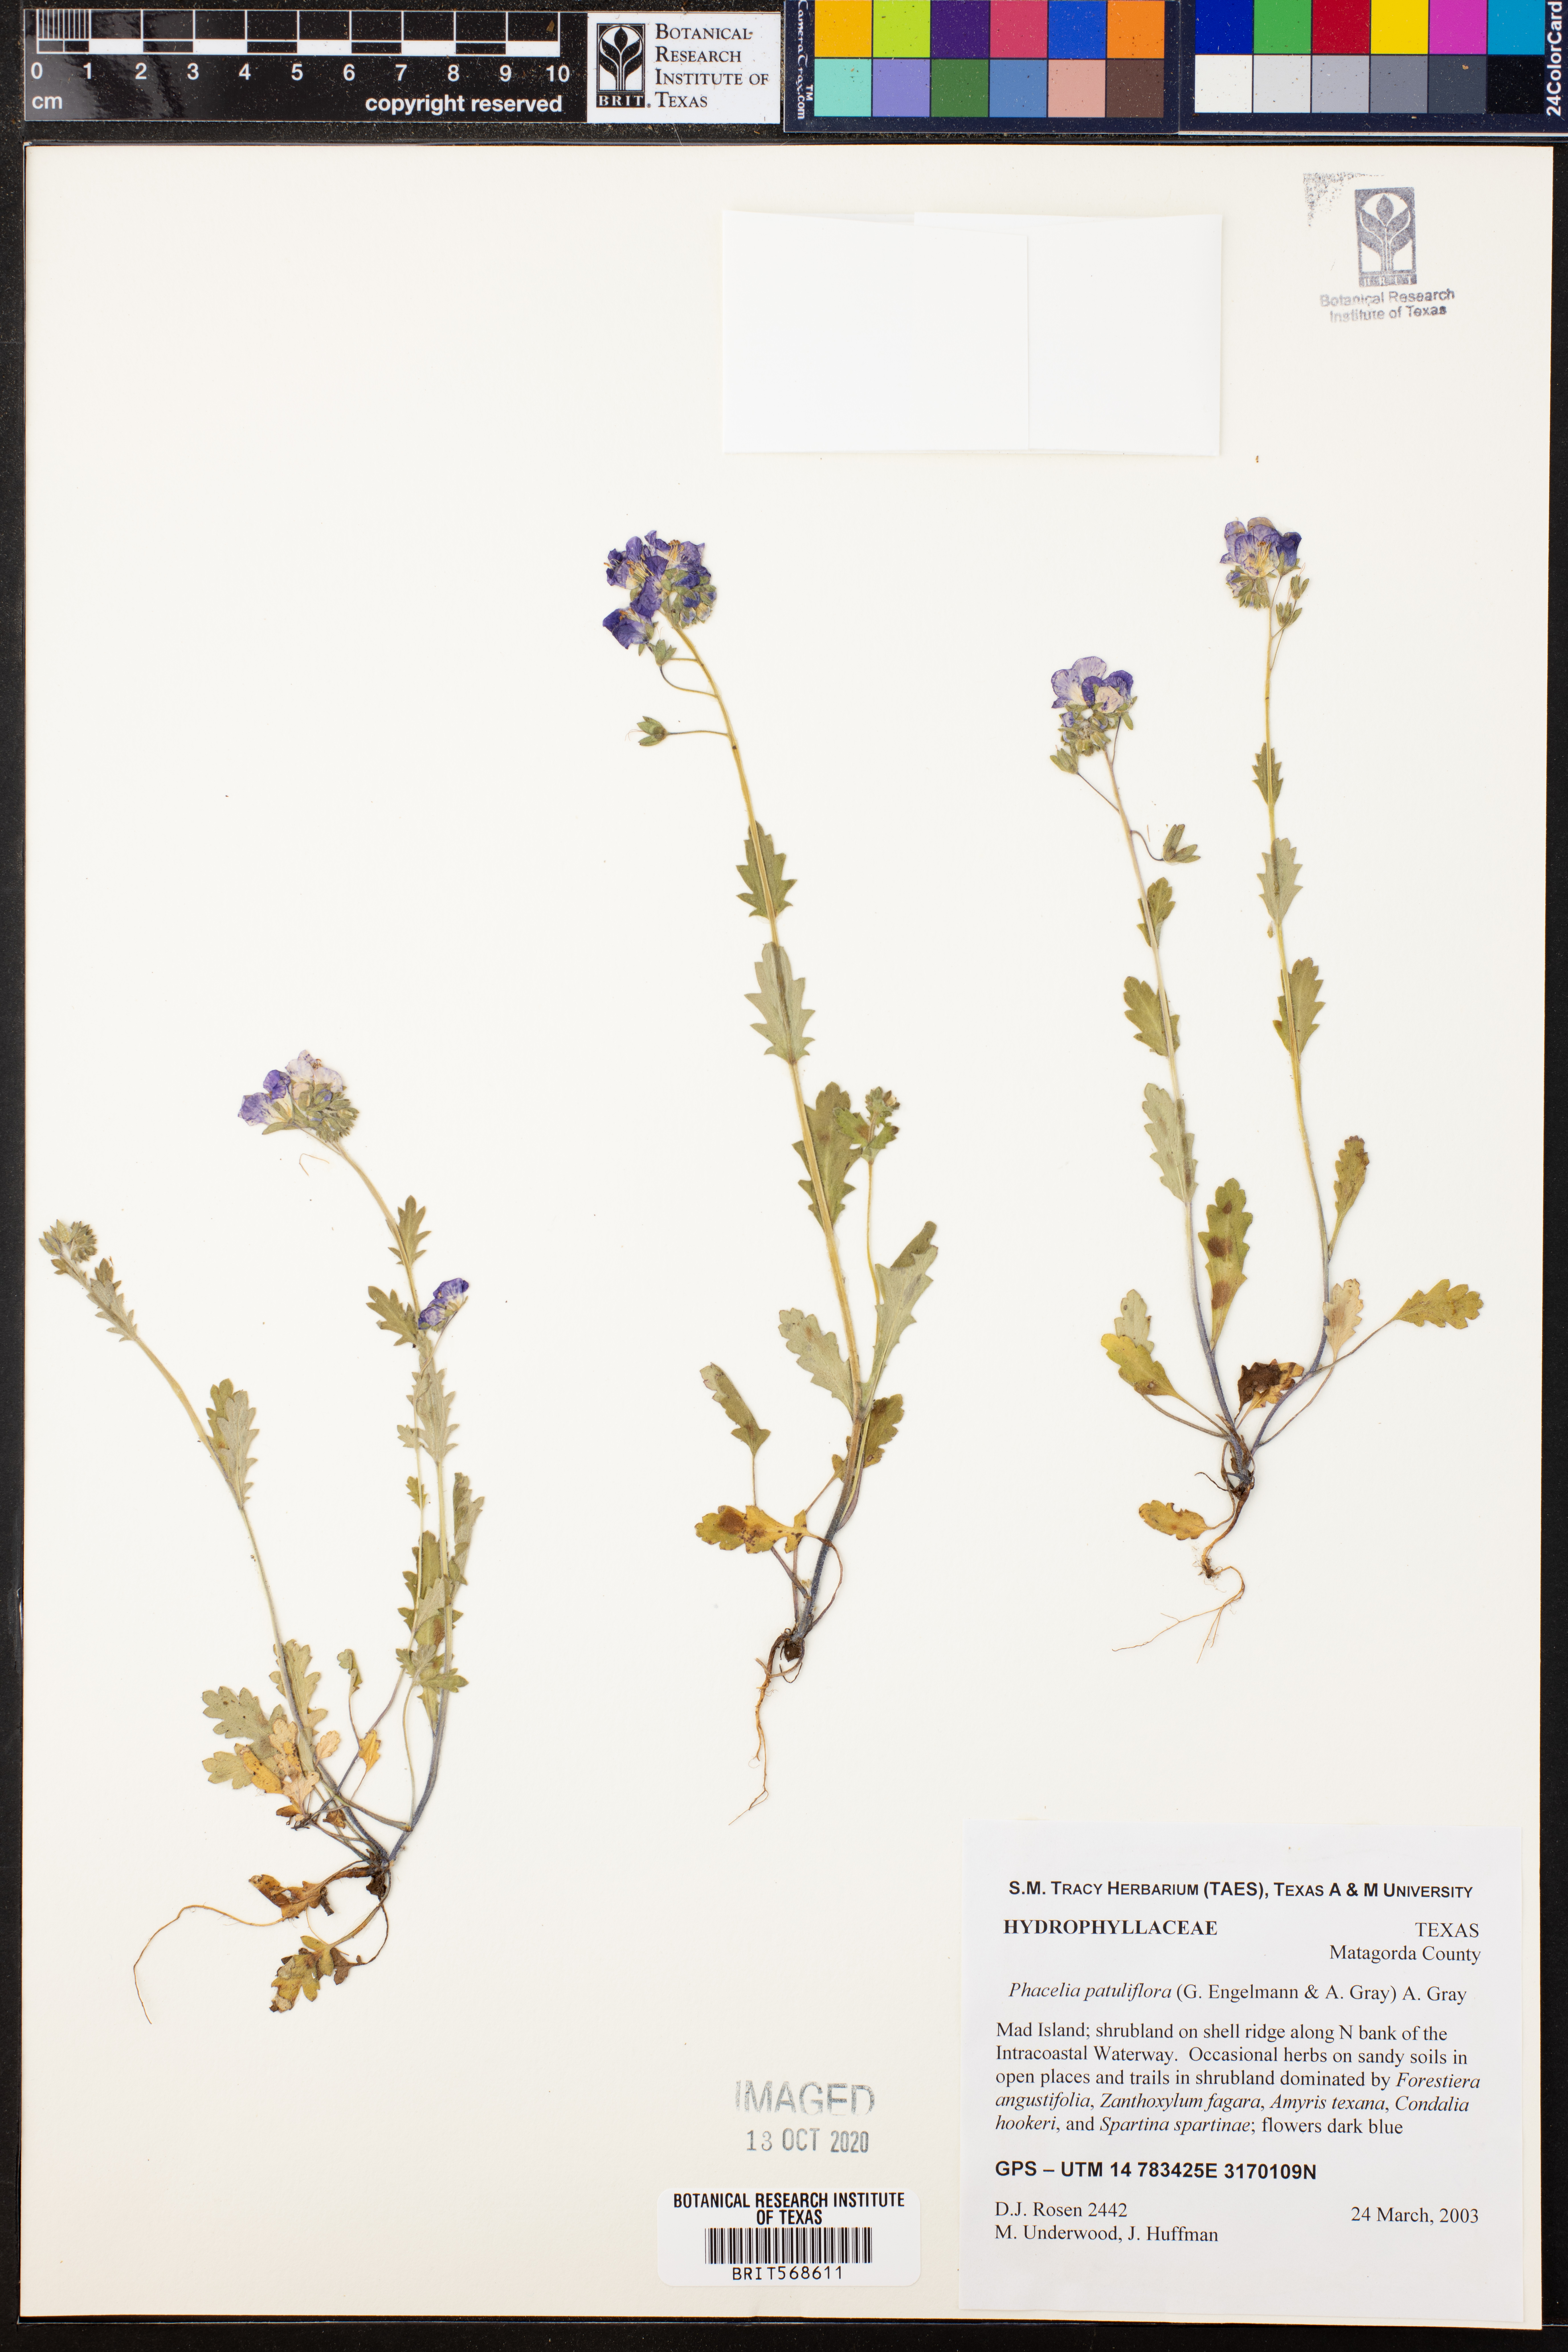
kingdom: Plantae
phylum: Tracheophyta
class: Magnoliopsida
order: Boraginales
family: Hydrophyllaceae
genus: Phacelia
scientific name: Phacelia patuliflora
